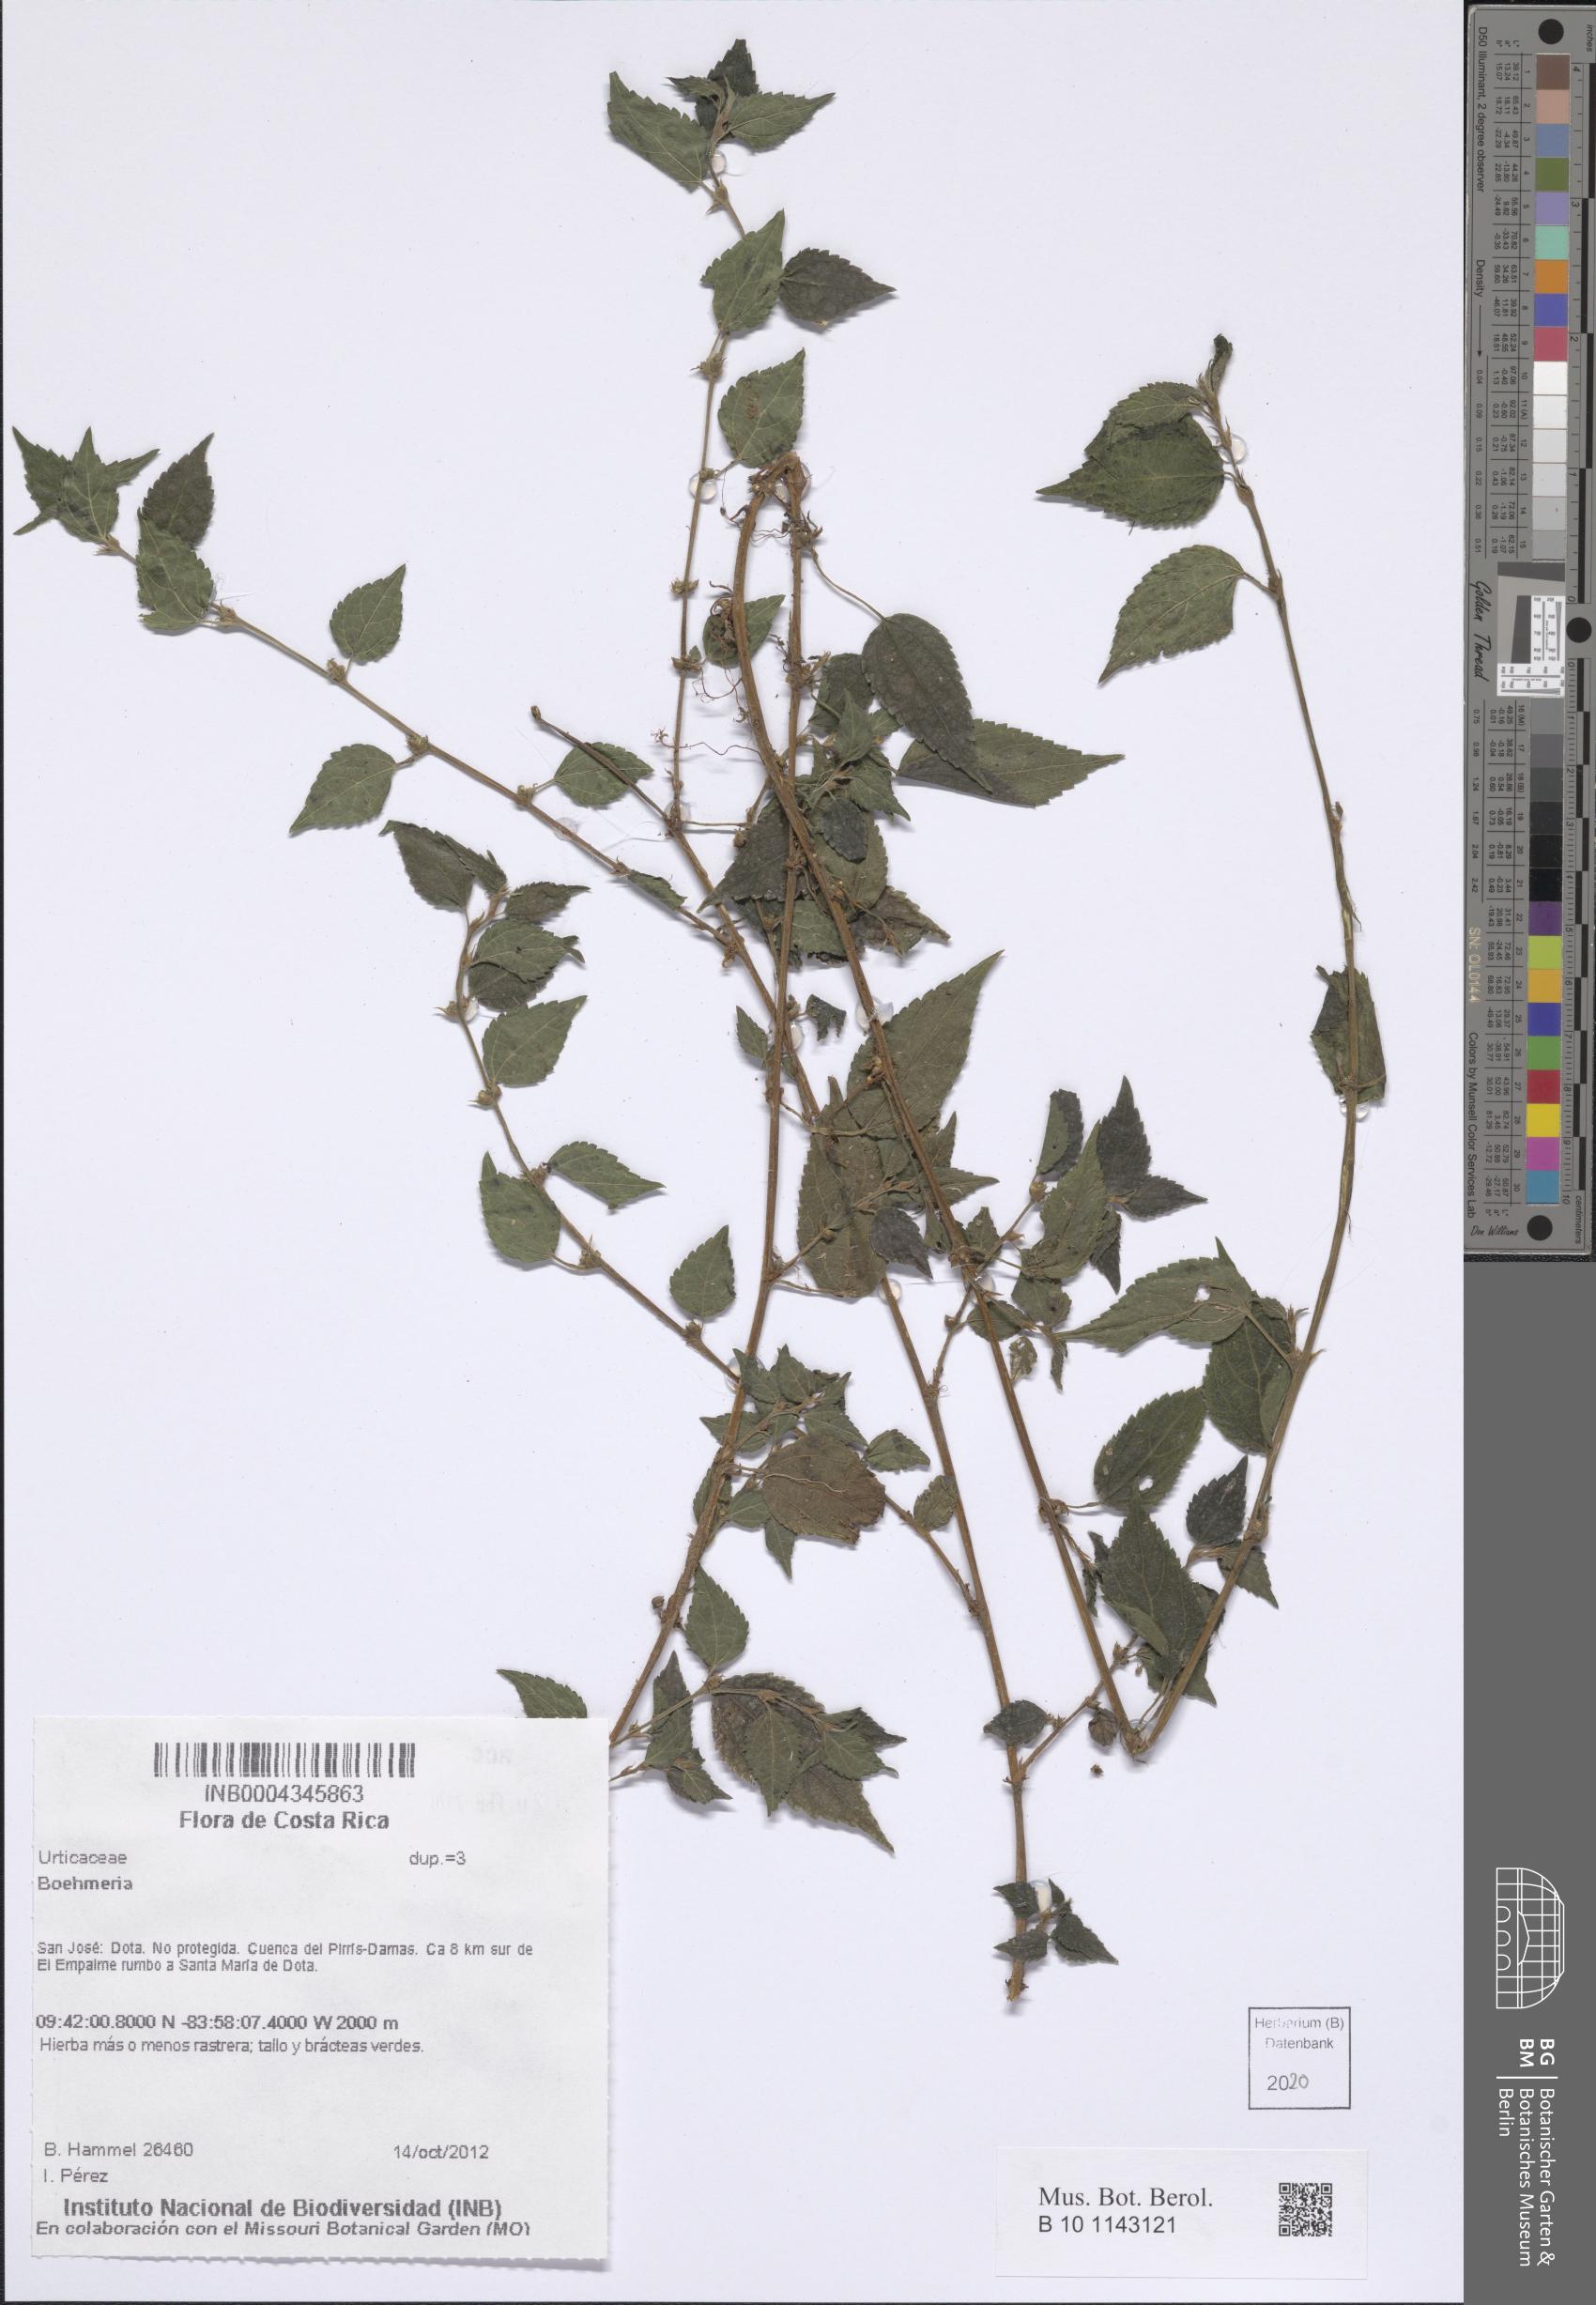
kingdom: Plantae
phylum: Tracheophyta
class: Magnoliopsida
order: Rosales
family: Urticaceae
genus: Boehmeria
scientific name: Boehmeria
